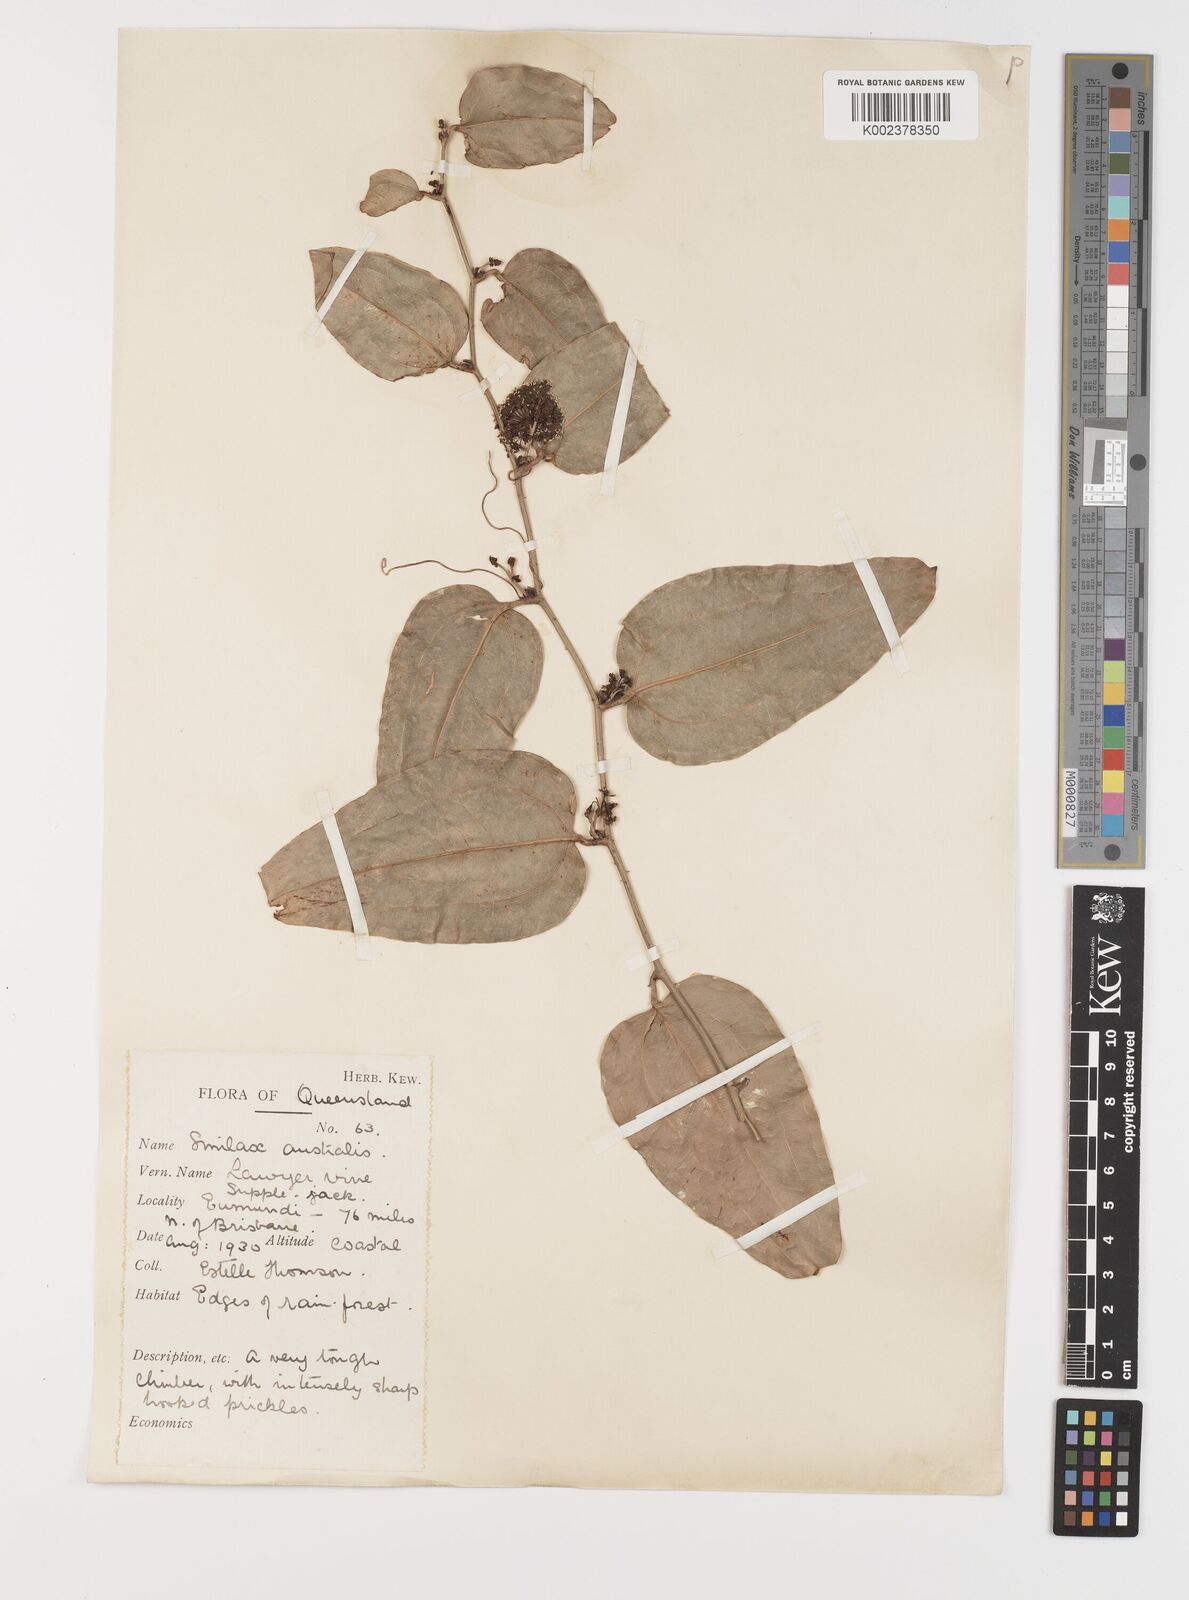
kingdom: Plantae
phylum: Tracheophyta
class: Liliopsida
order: Liliales
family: Smilacaceae
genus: Smilax
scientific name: Smilax australis
